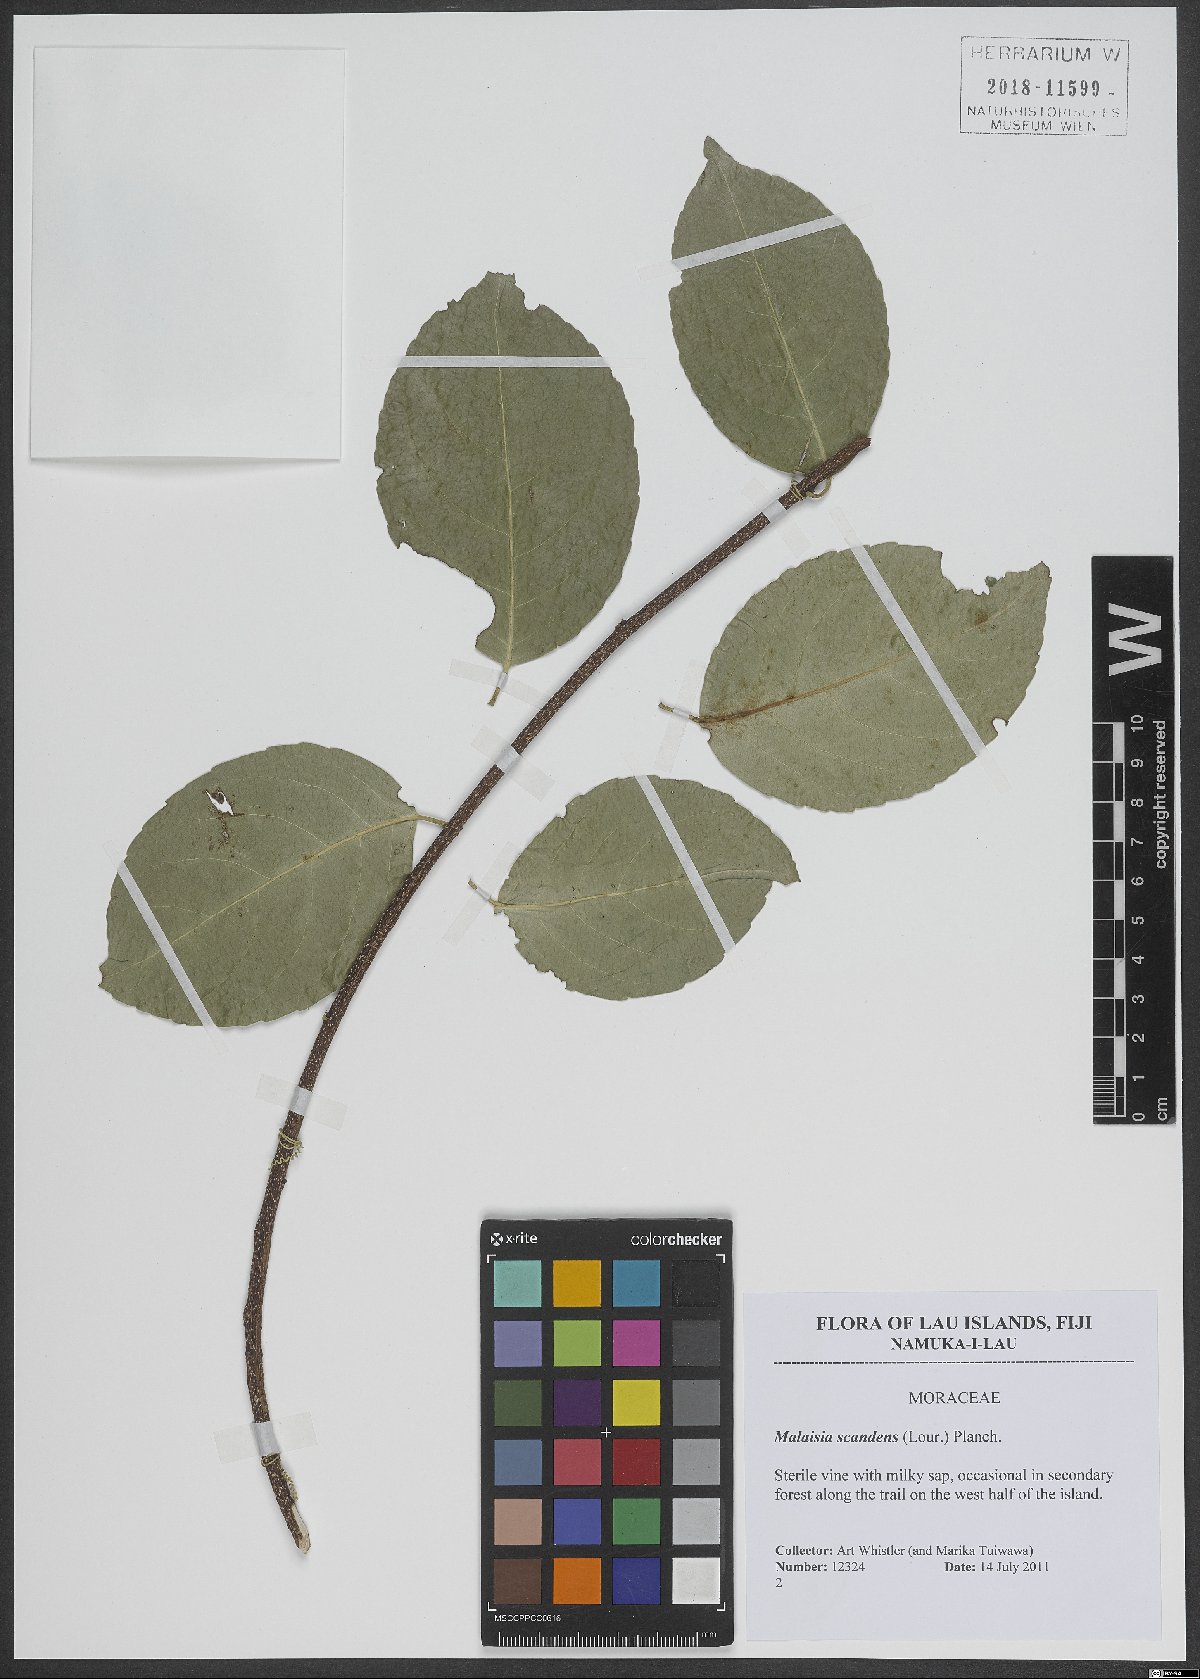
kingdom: Plantae
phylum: Tracheophyta
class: Magnoliopsida
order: Rosales
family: Moraceae
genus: Malaisia
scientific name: Malaisia scandens
